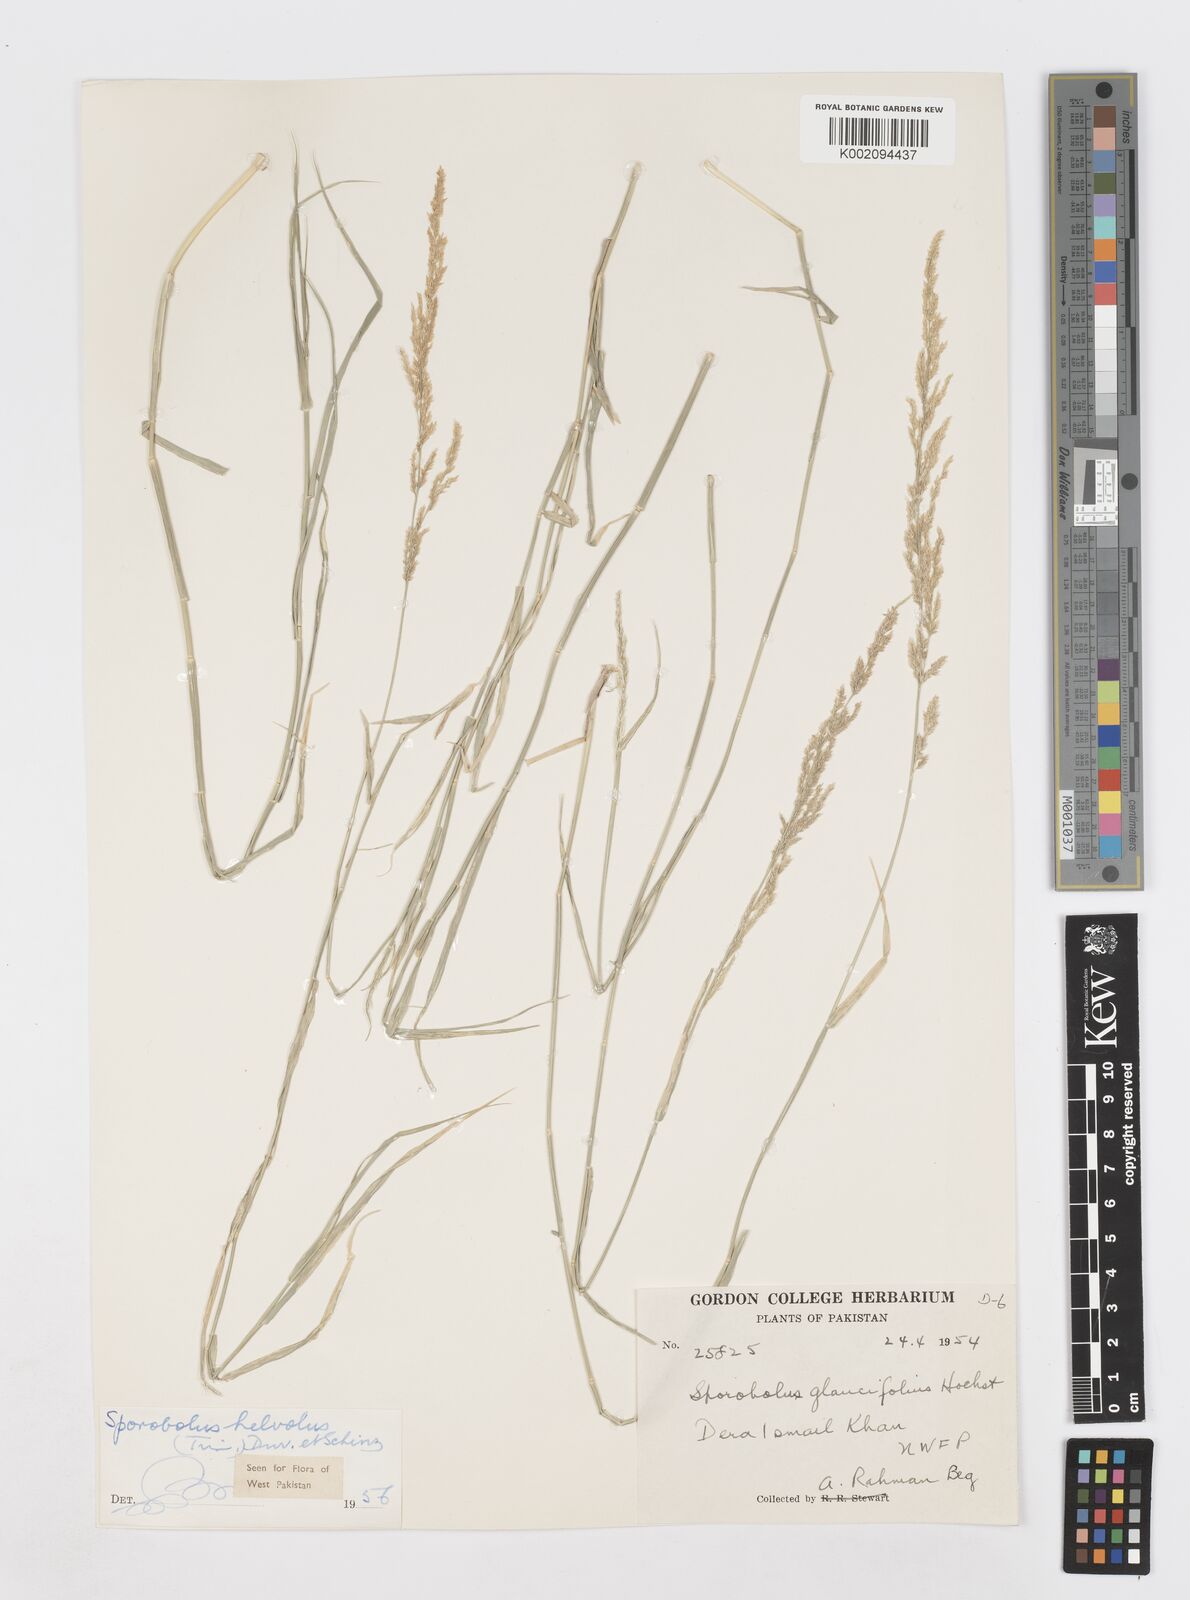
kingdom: Plantae
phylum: Tracheophyta
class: Liliopsida
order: Poales
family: Poaceae
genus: Sporobolus
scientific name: Sporobolus helvolus
